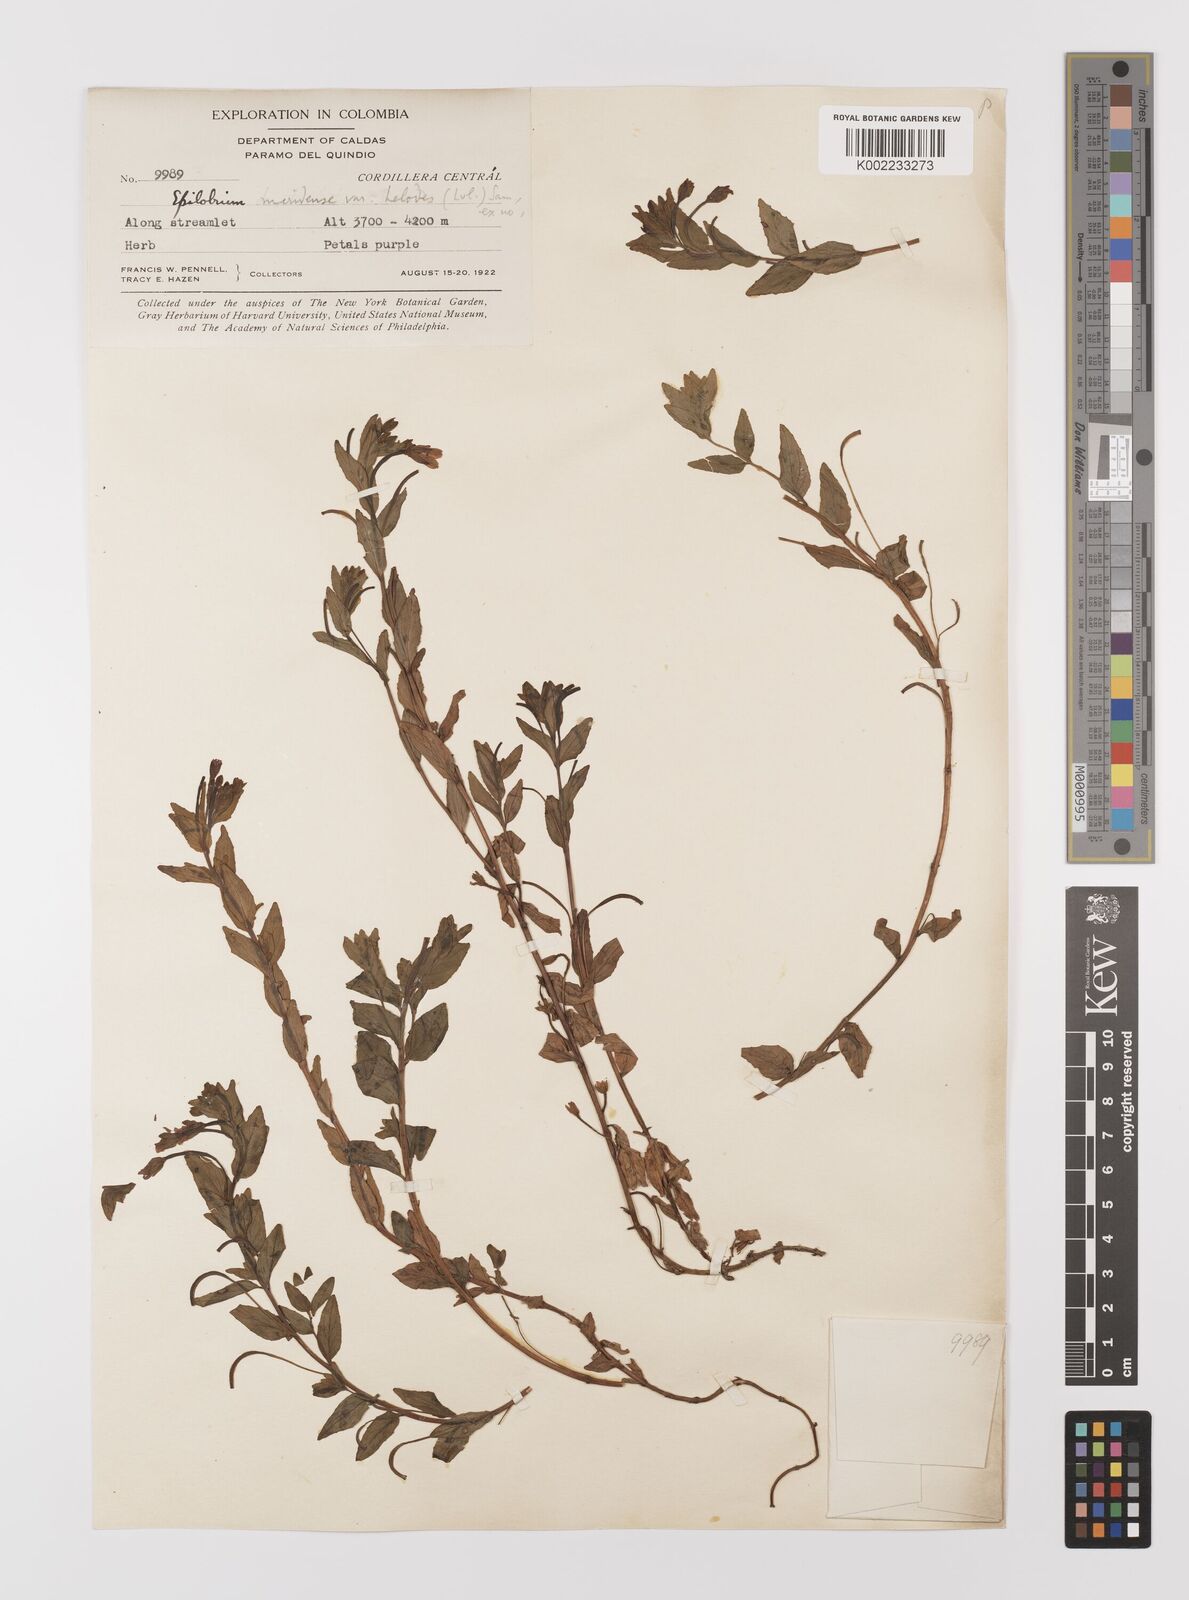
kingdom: Plantae
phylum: Tracheophyta
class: Magnoliopsida
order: Myrtales
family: Onagraceae
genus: Epilobium
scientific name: Epilobium denticulatum
